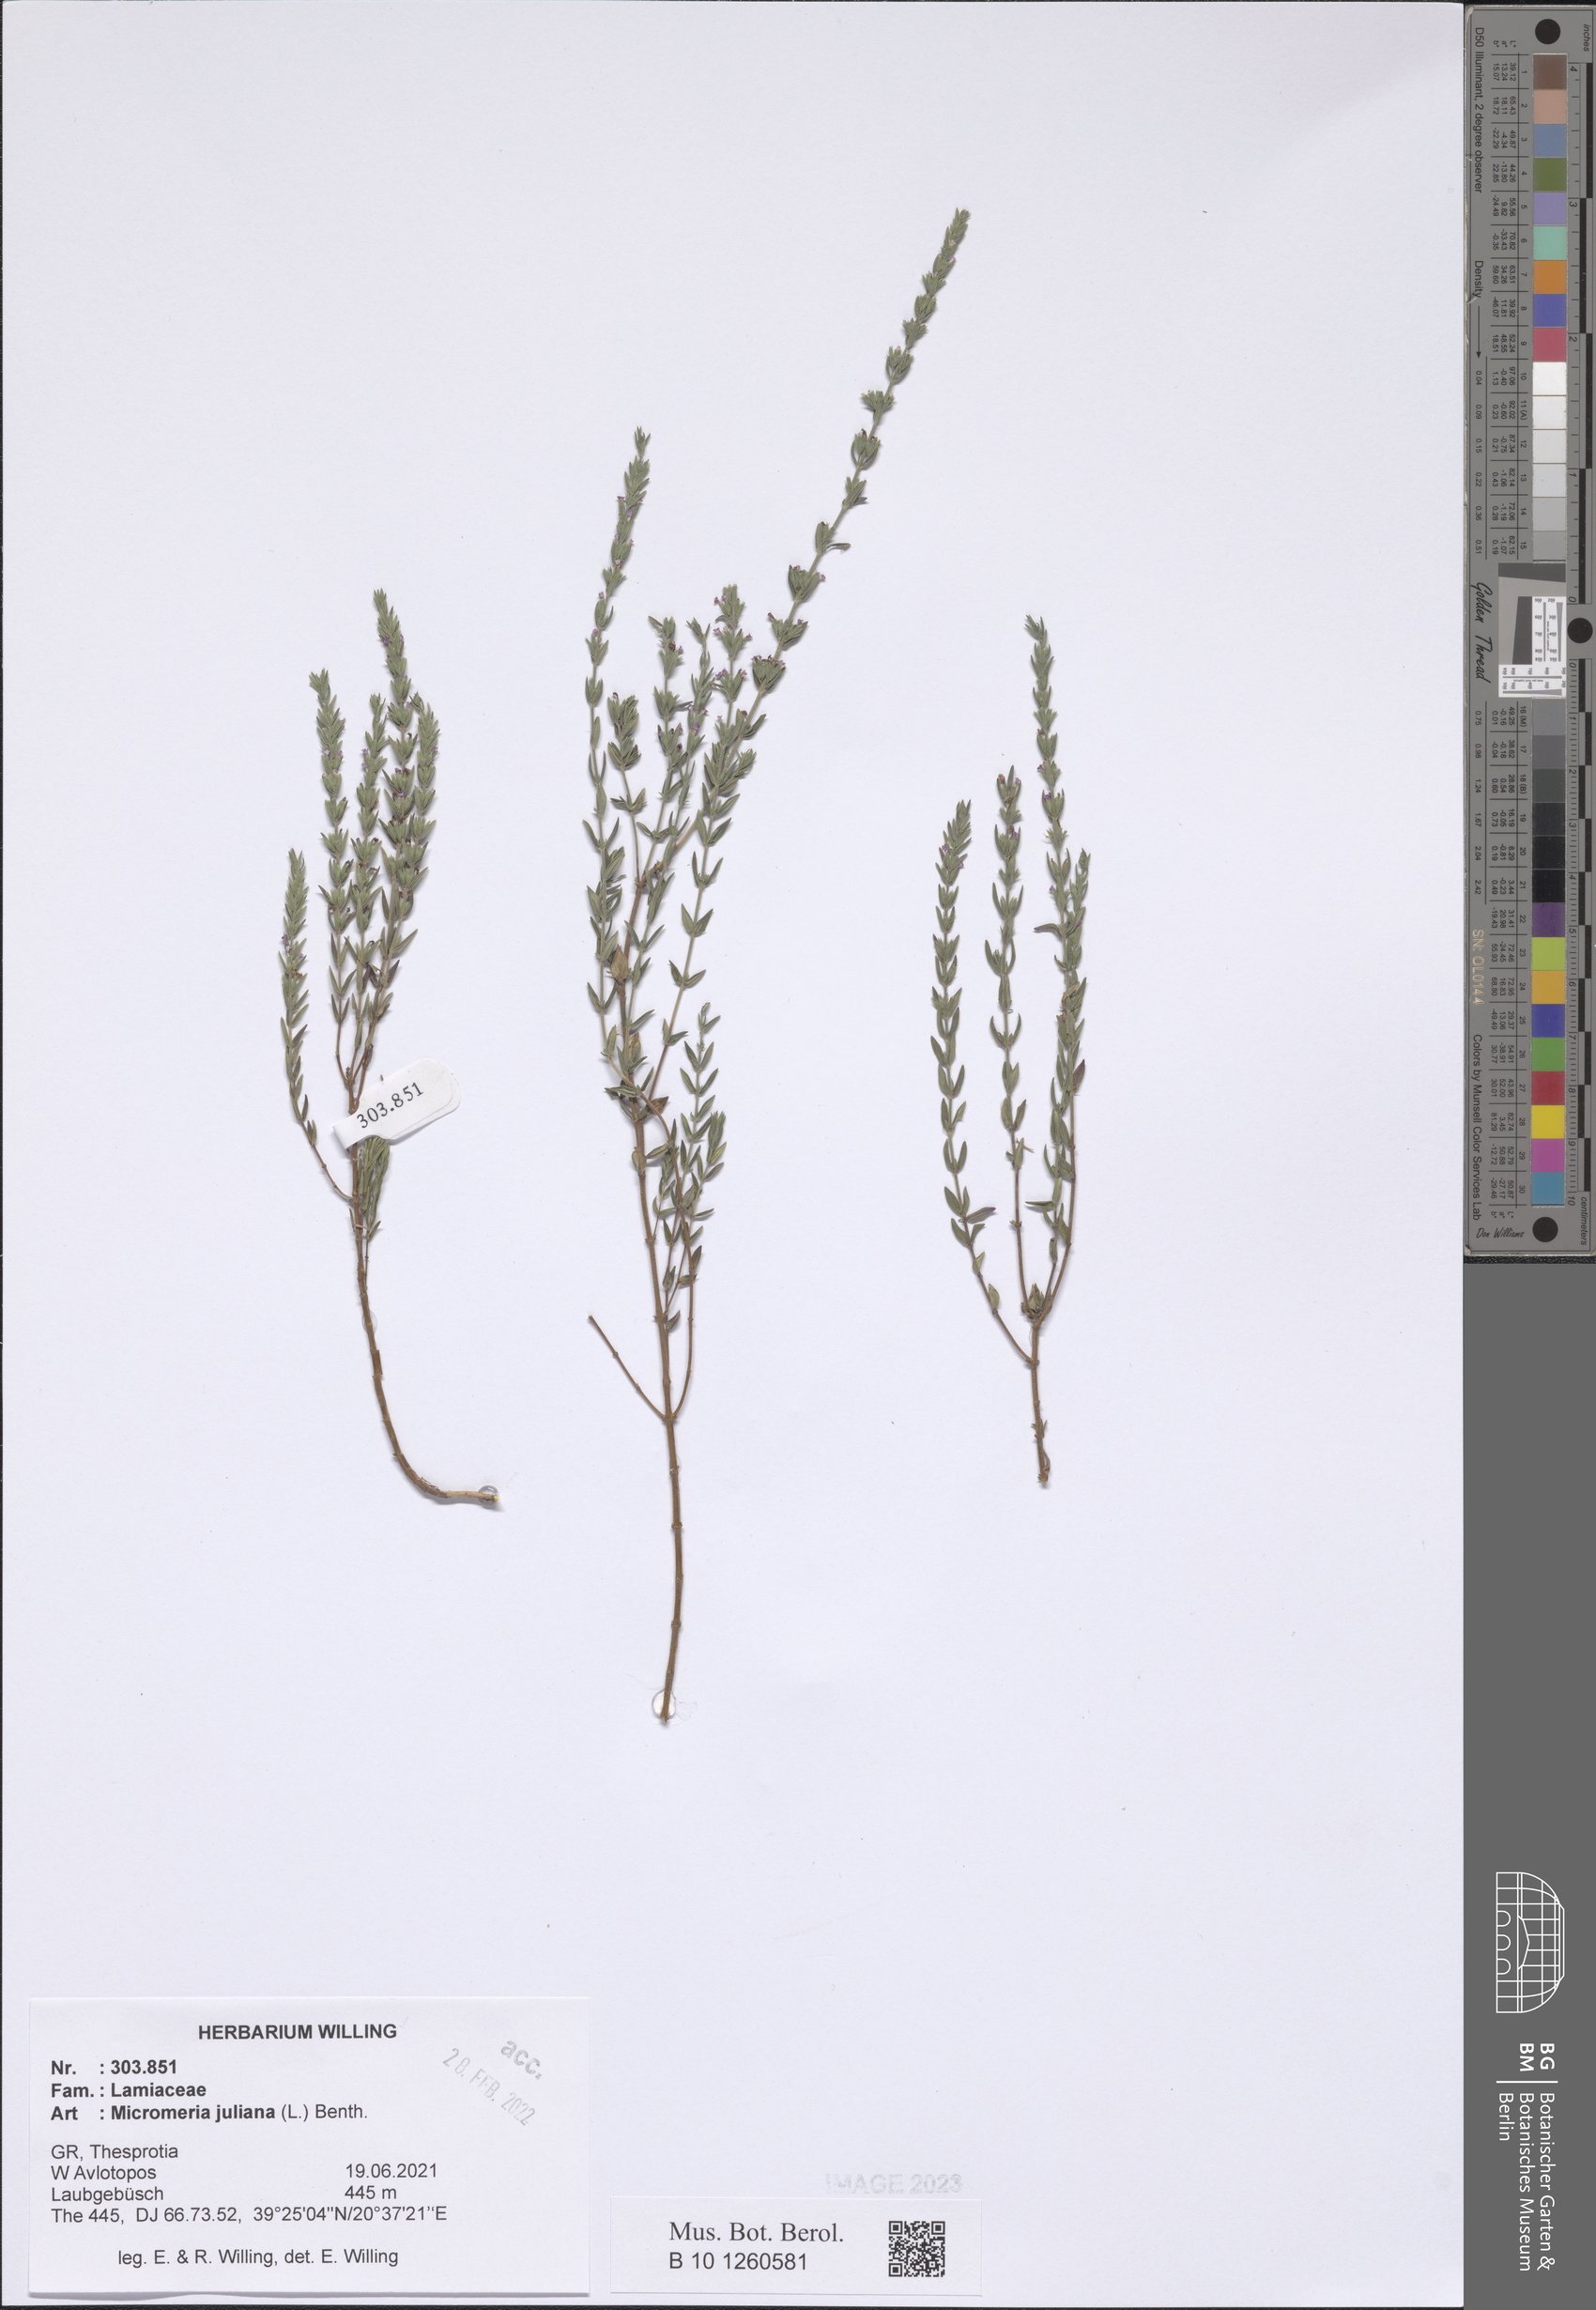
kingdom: Plantae
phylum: Tracheophyta
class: Magnoliopsida
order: Lamiales
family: Lamiaceae
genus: Micromeria
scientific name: Micromeria juliana
